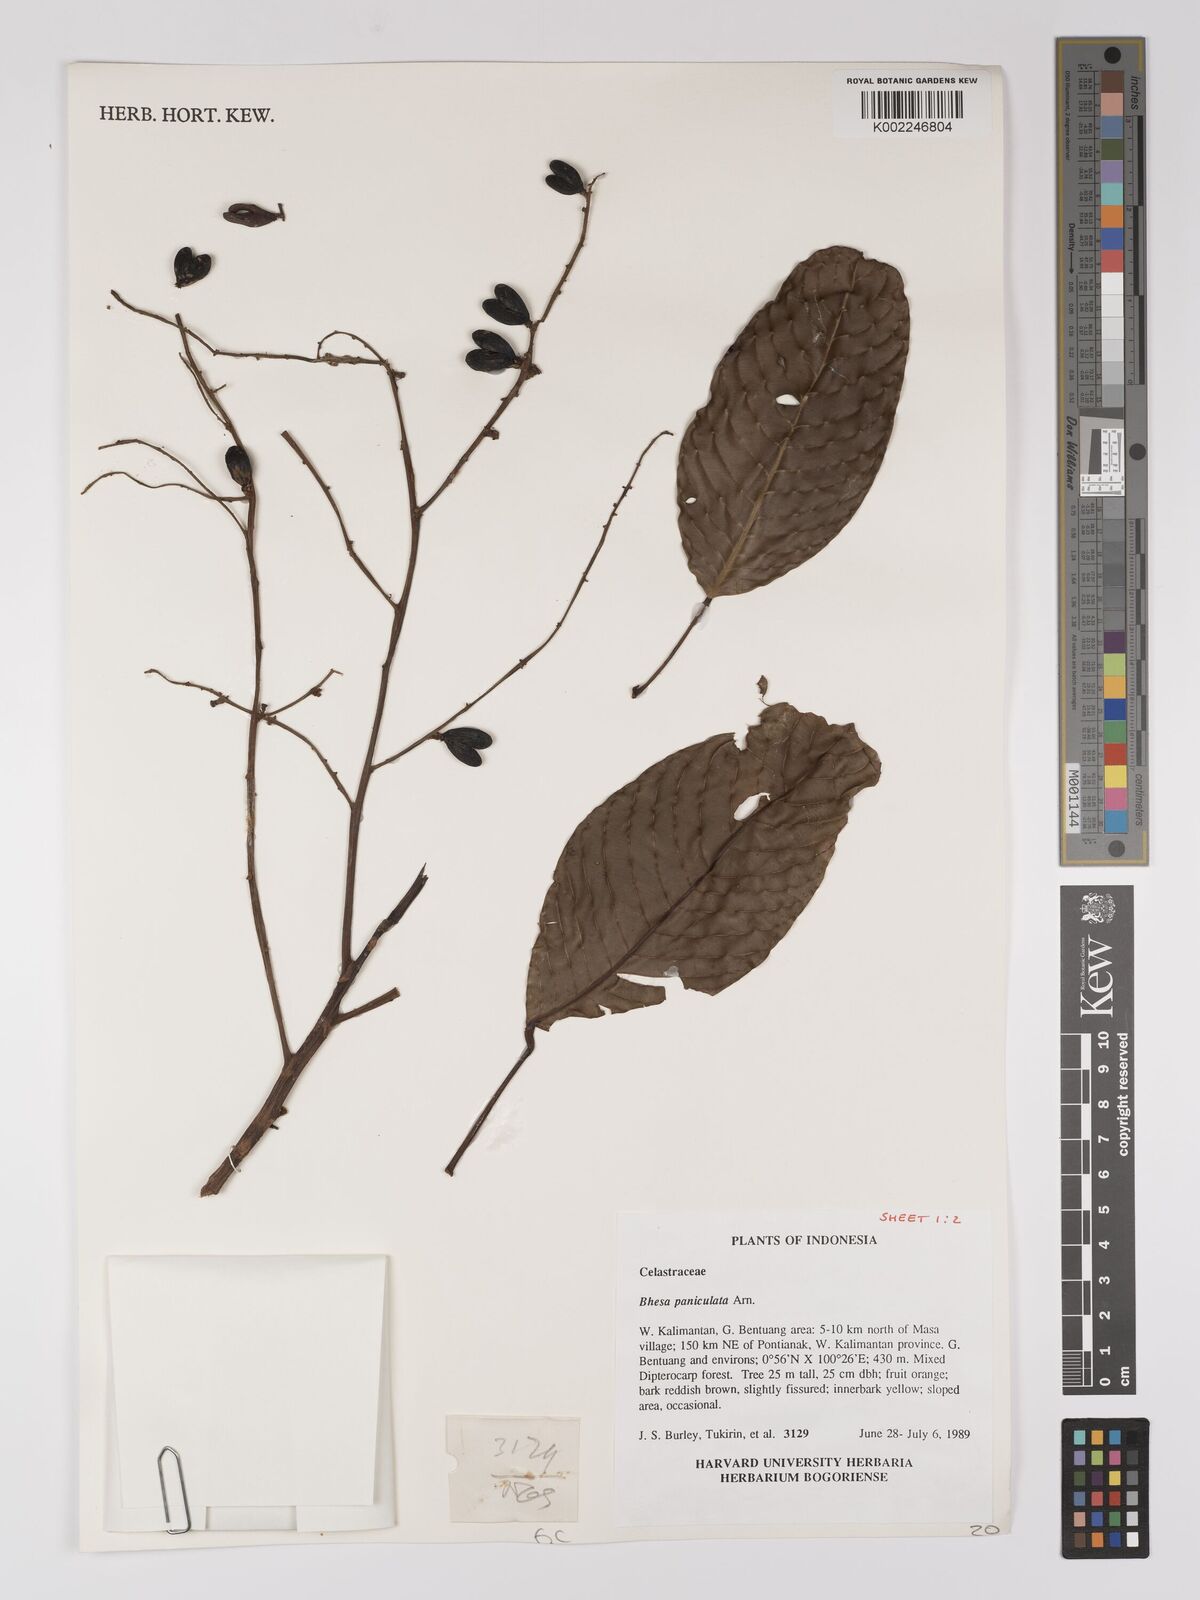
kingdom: Plantae
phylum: Tracheophyta
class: Magnoliopsida
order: Malpighiales
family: Centroplacaceae
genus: Bhesa
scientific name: Bhesa paniculata
